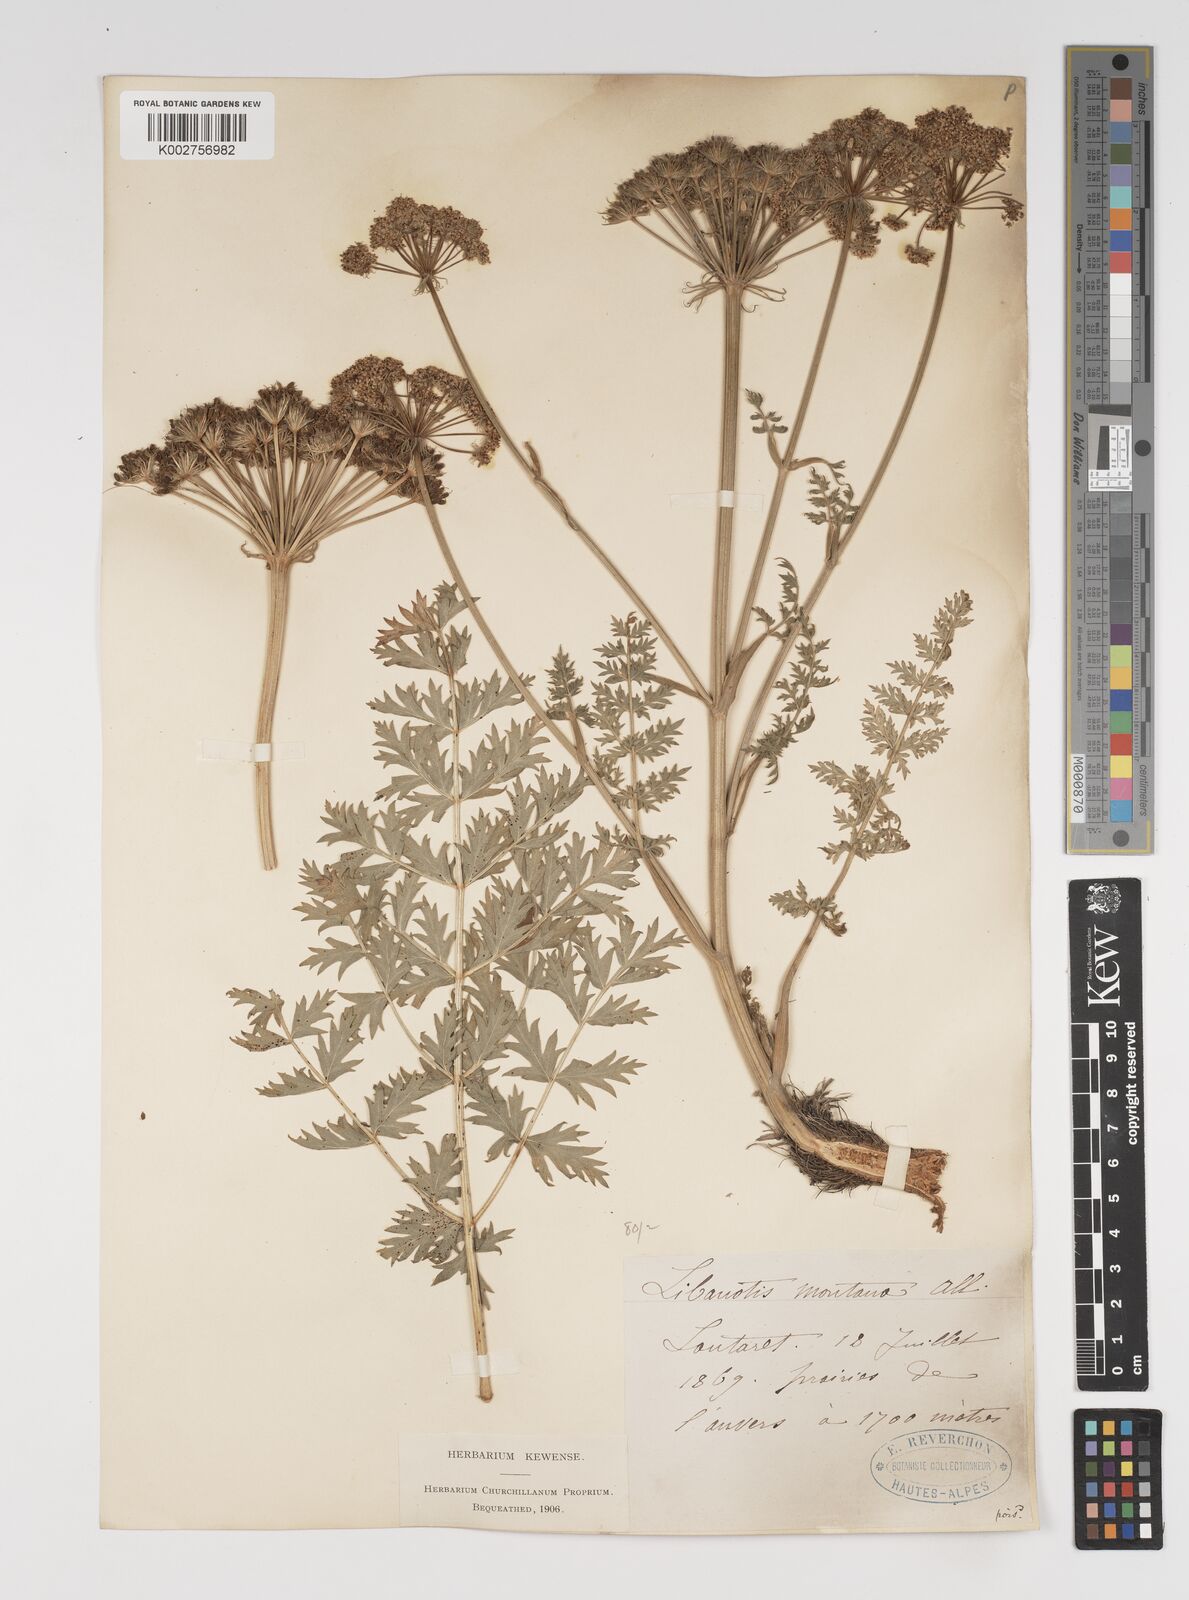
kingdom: Plantae
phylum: Tracheophyta
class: Magnoliopsida
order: Apiales
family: Apiaceae
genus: Seseli
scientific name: Seseli libanotis
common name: Mooncarrot
